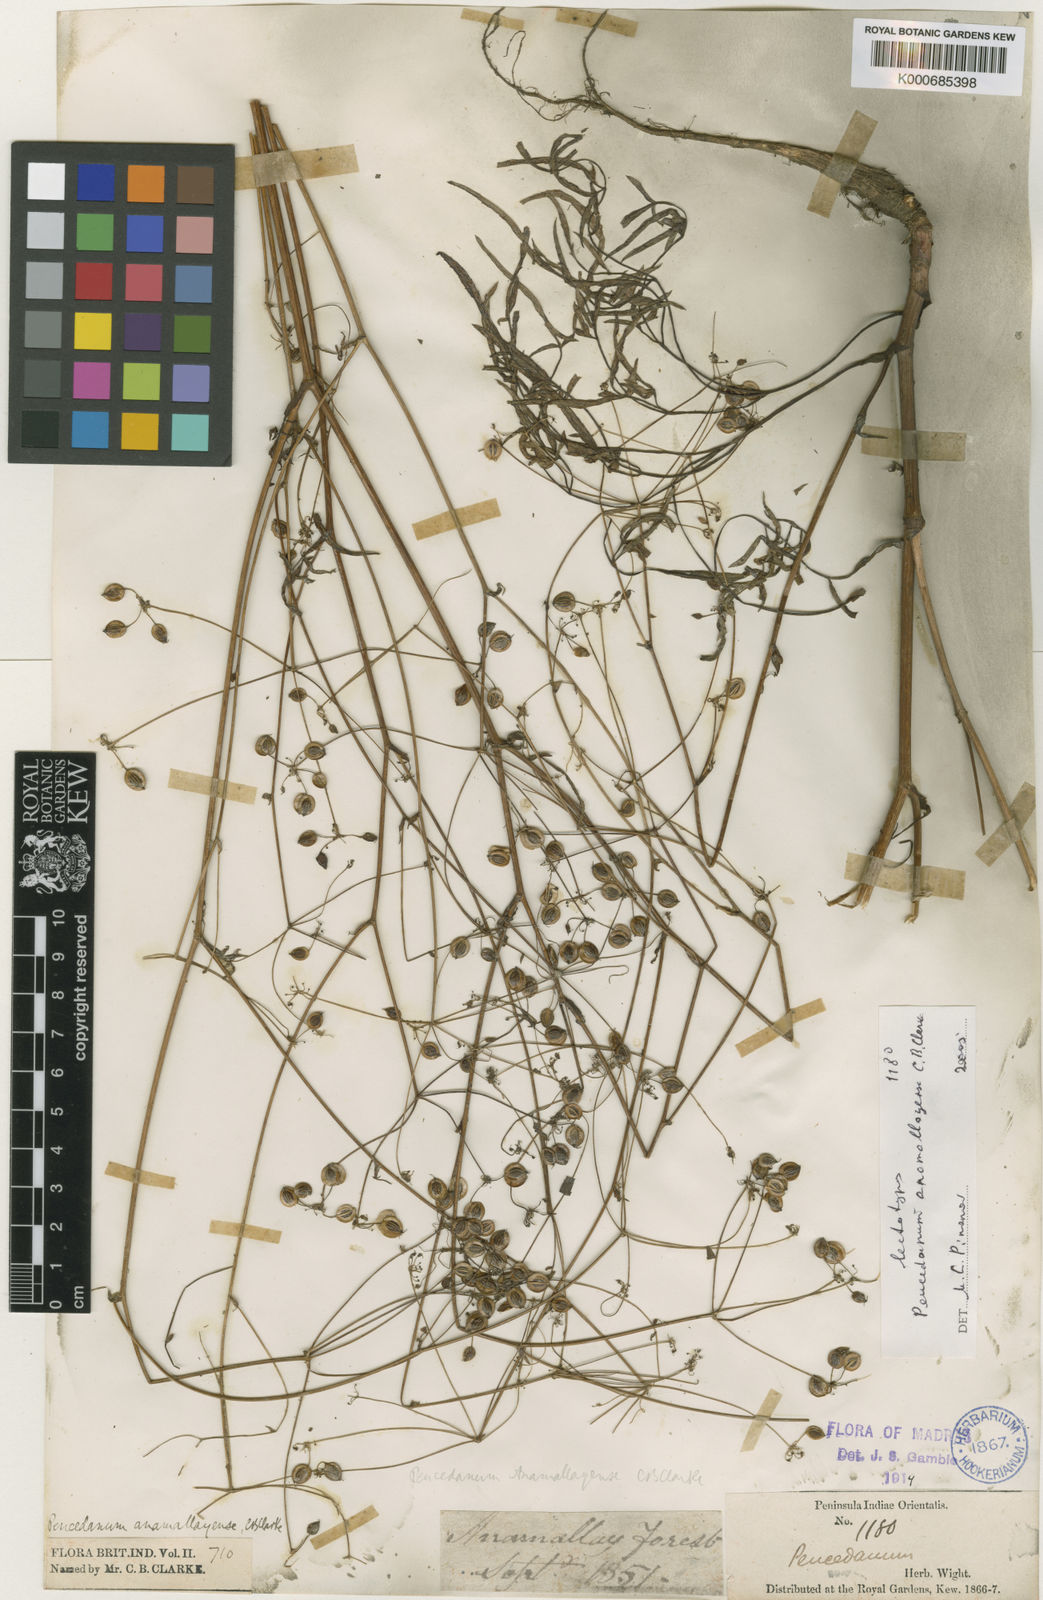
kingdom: Plantae
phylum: Tracheophyta
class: Magnoliopsida
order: Apiales
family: Apiaceae
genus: Peucedanum
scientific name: Peucedanum anamallayense
